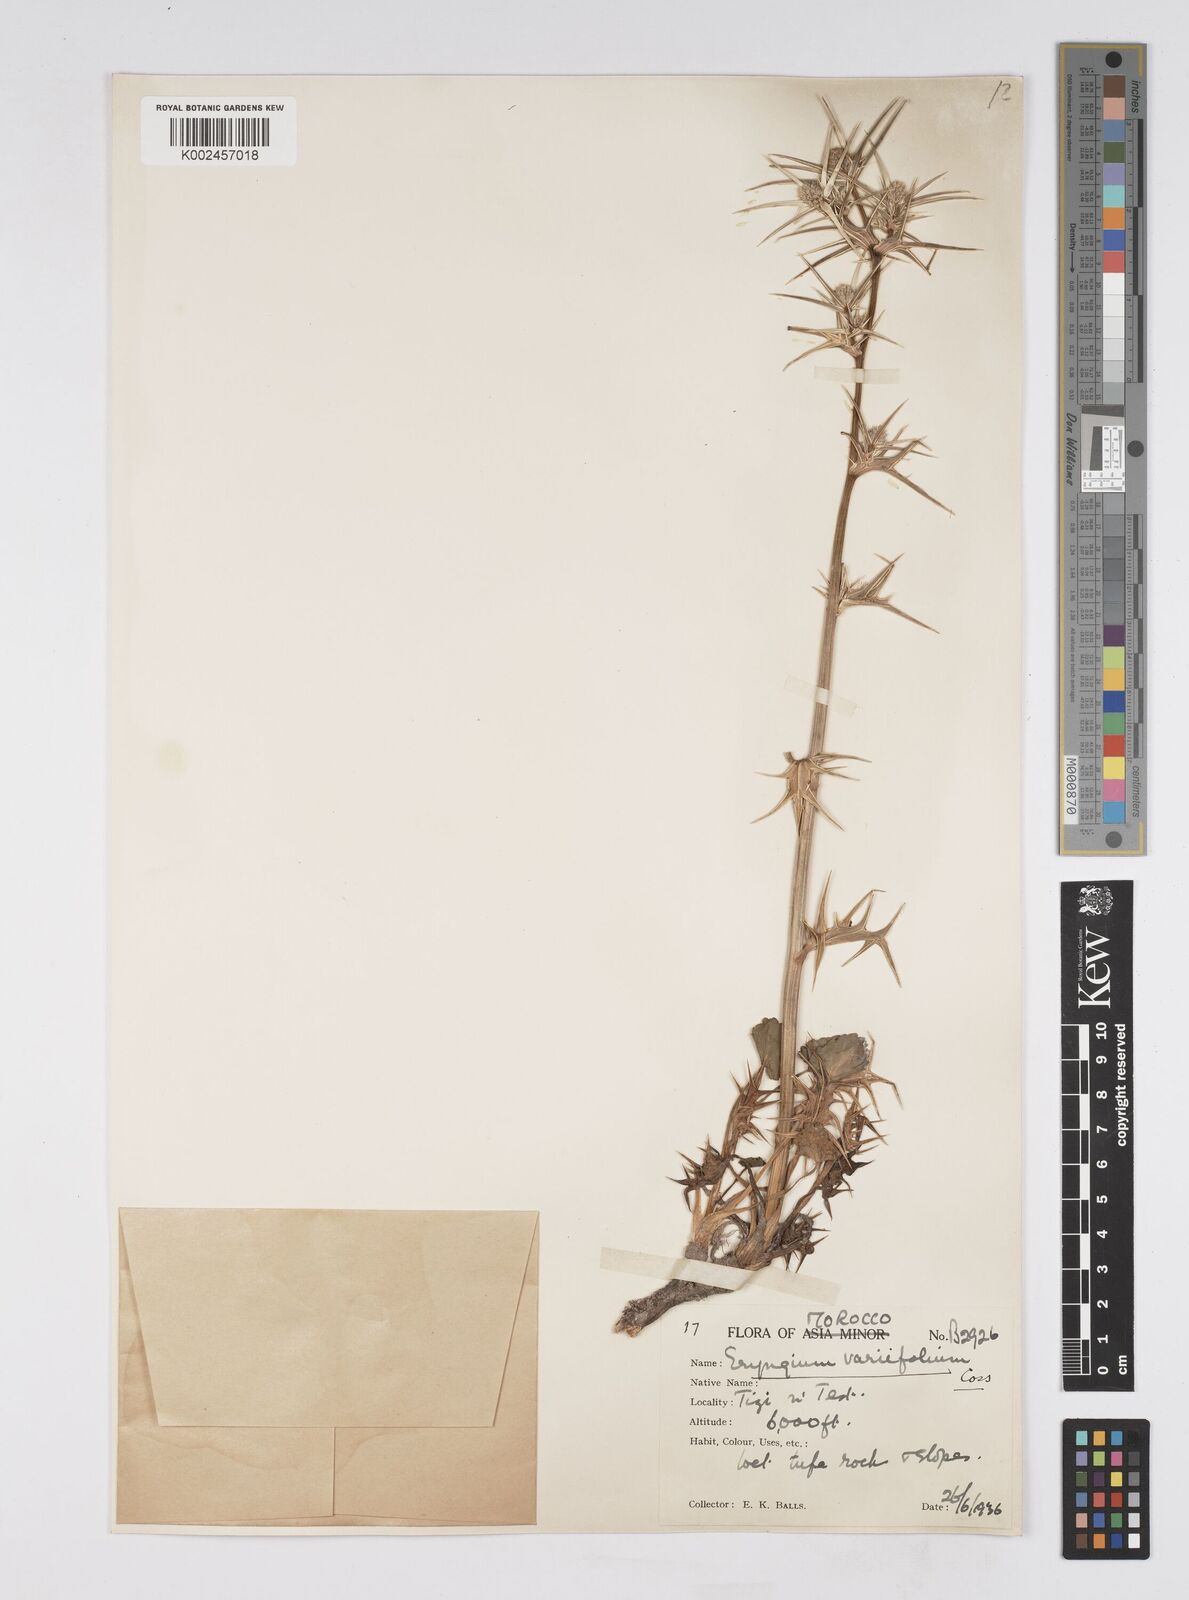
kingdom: Plantae
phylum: Tracheophyta
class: Magnoliopsida
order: Apiales
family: Apiaceae
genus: Eryngium
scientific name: Eryngium variifolium
